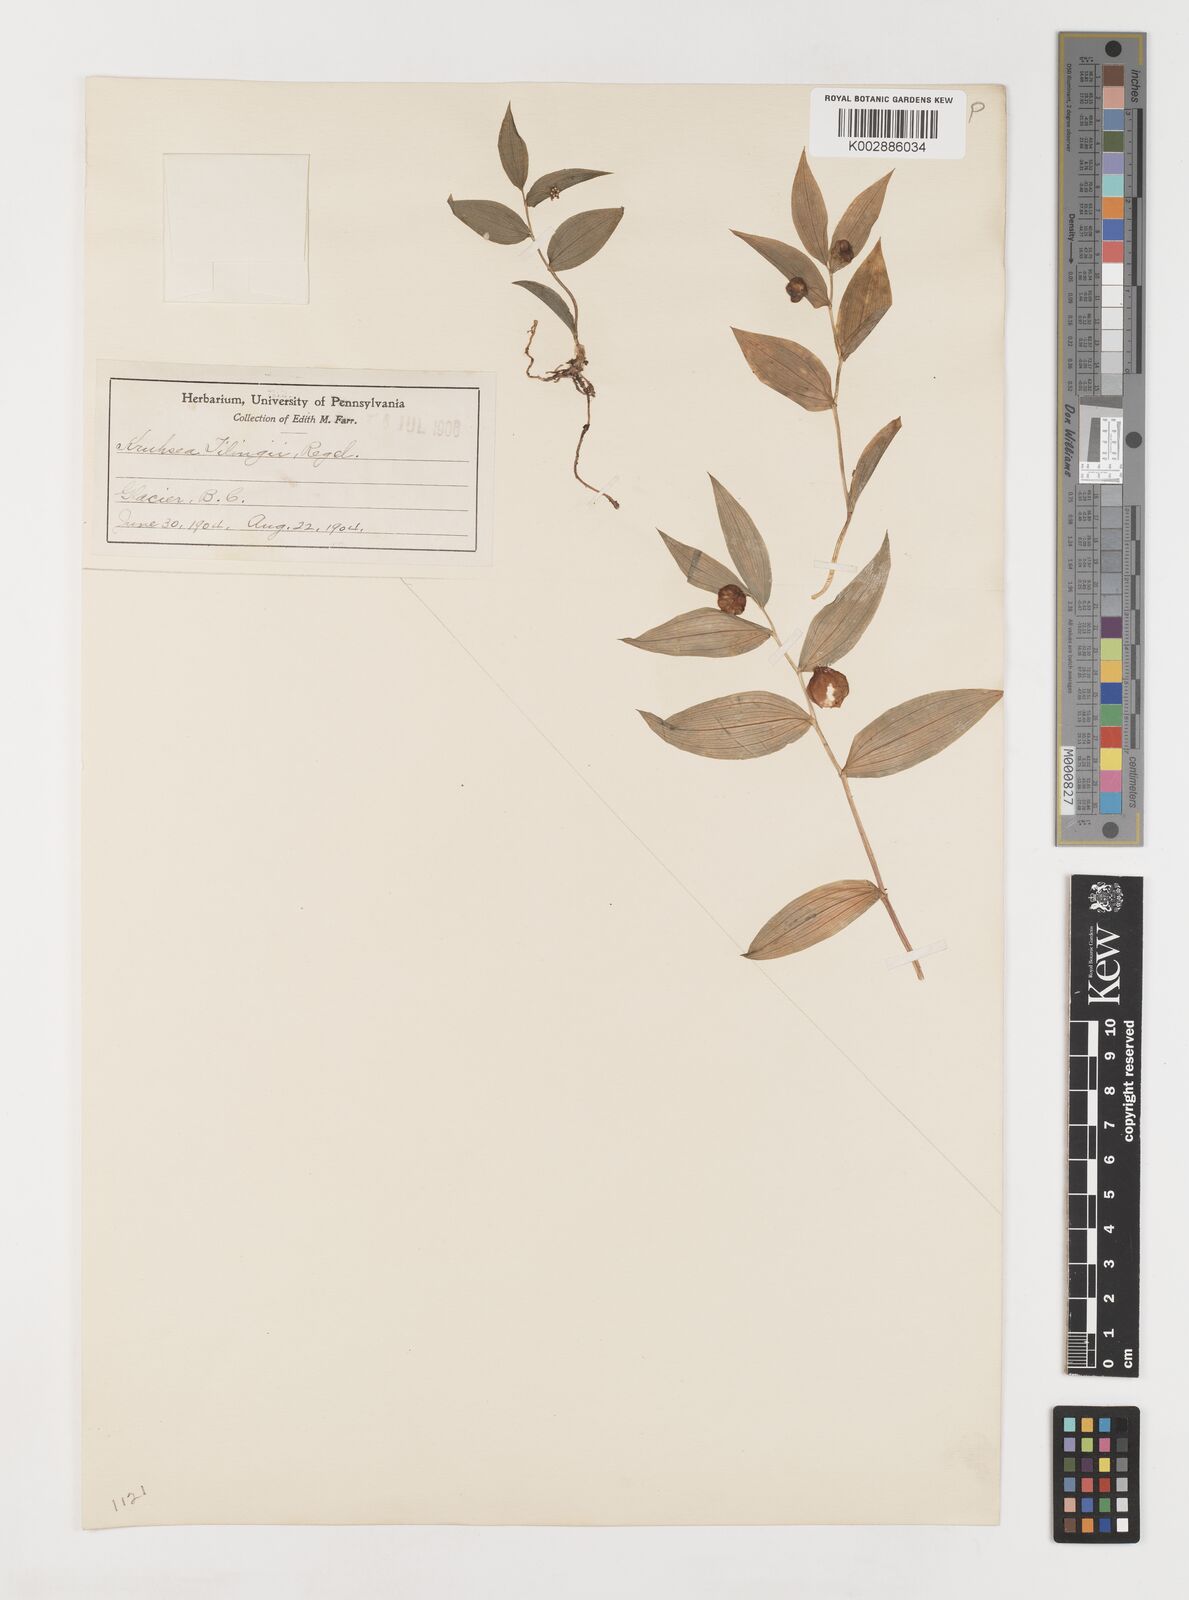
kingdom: Plantae
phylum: Tracheophyta
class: Liliopsida
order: Liliales
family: Liliaceae
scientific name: Liliaceae
